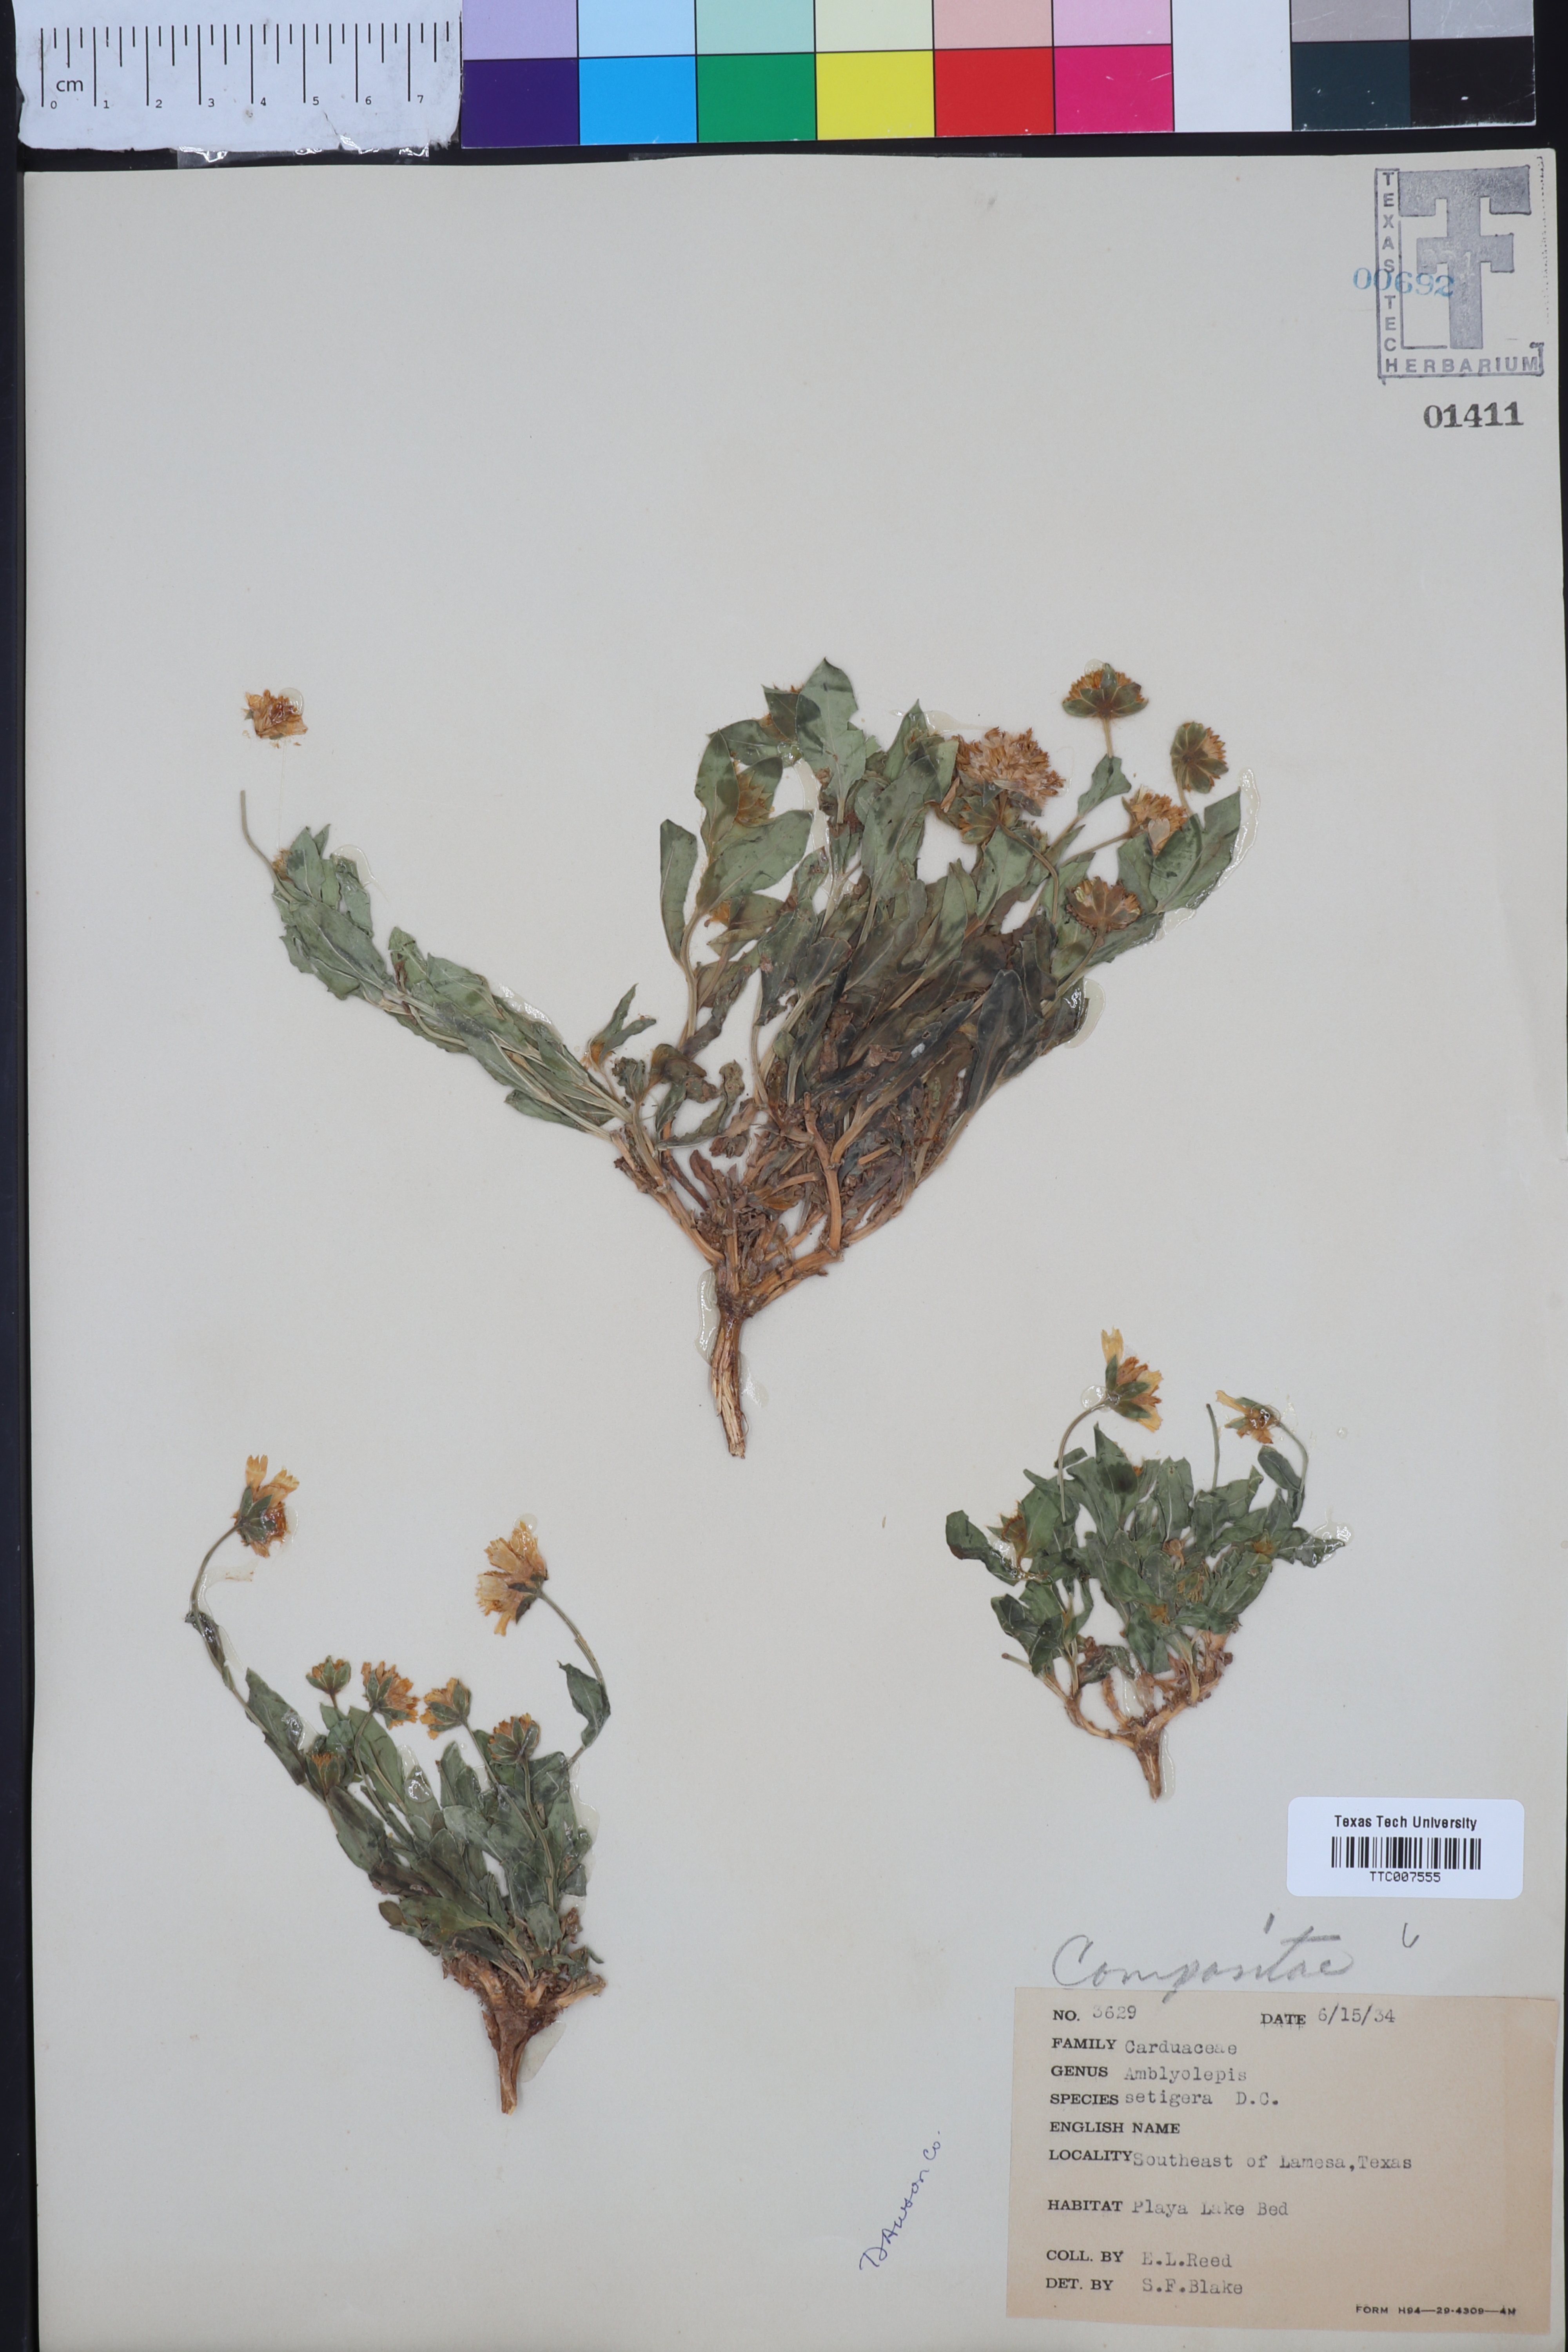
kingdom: Plantae
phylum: Tracheophyta
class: Magnoliopsida
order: Asterales
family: Asteraceae
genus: Amblyolepis
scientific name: Amblyolepis setigera
